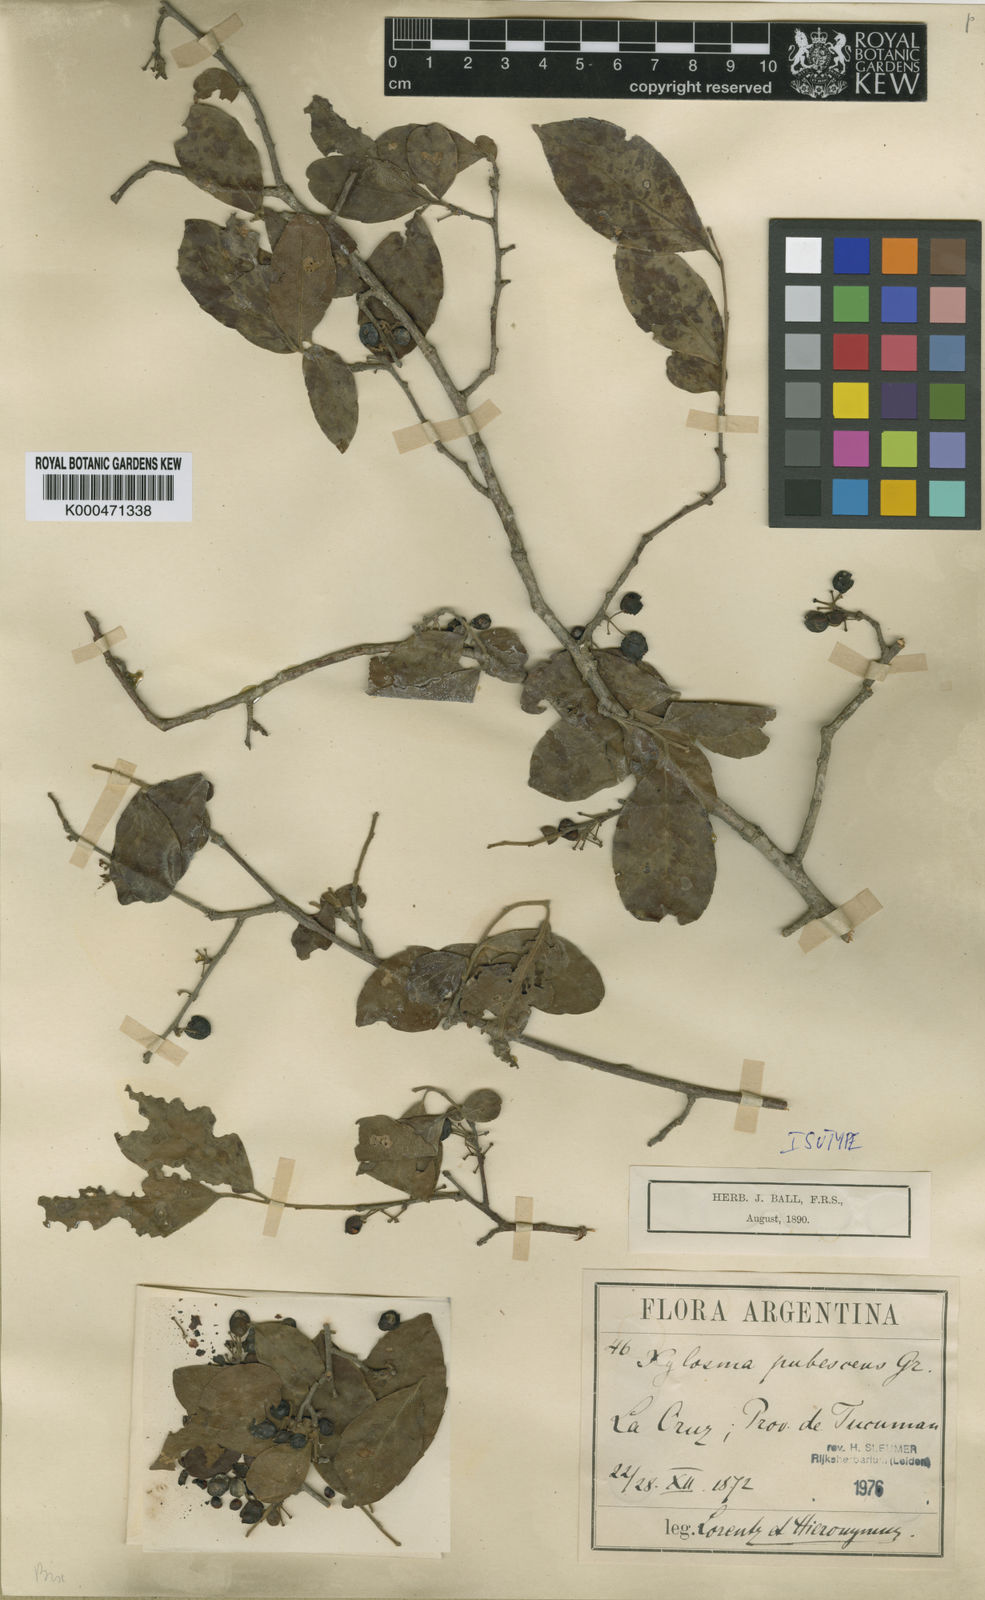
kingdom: Plantae
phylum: Tracheophyta
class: Magnoliopsida
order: Malpighiales
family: Salicaceae
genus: Xylosma
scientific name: Xylosma pubescens
